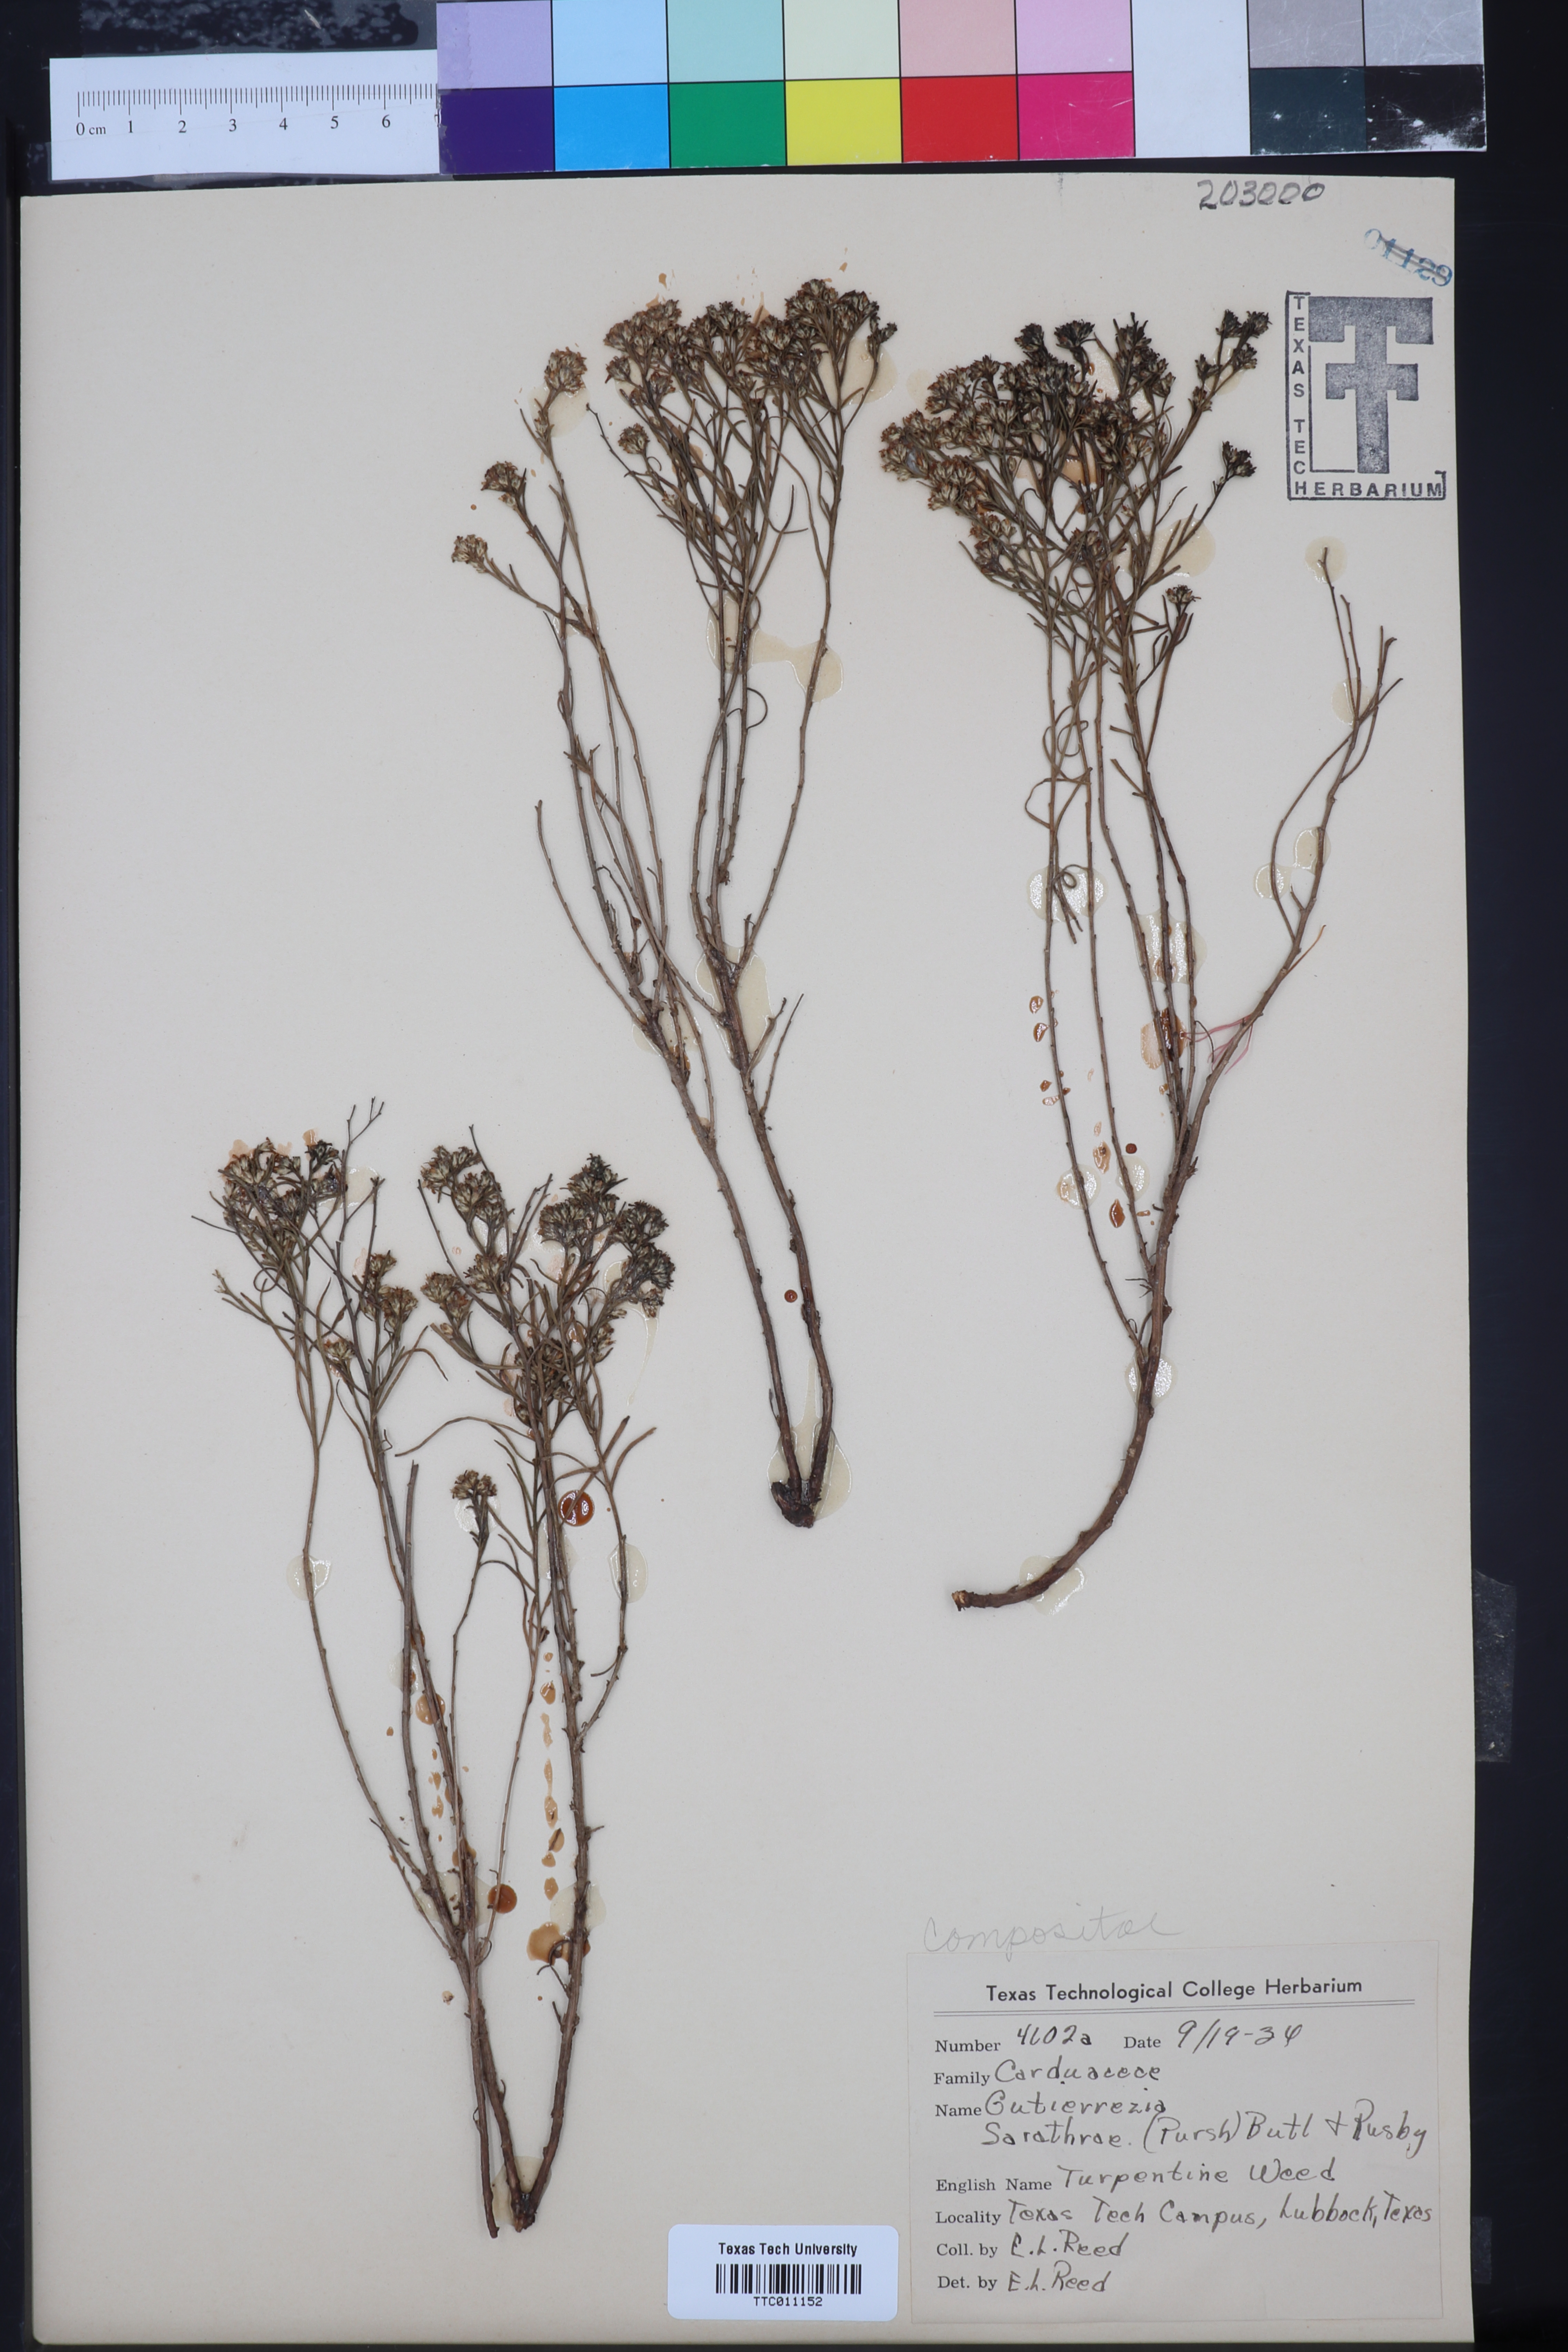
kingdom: Plantae
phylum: Tracheophyta
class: Magnoliopsida
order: Asterales
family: Asteraceae
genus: Gutierrezia
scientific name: Gutierrezia sarothrae
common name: Broom snakeweed
